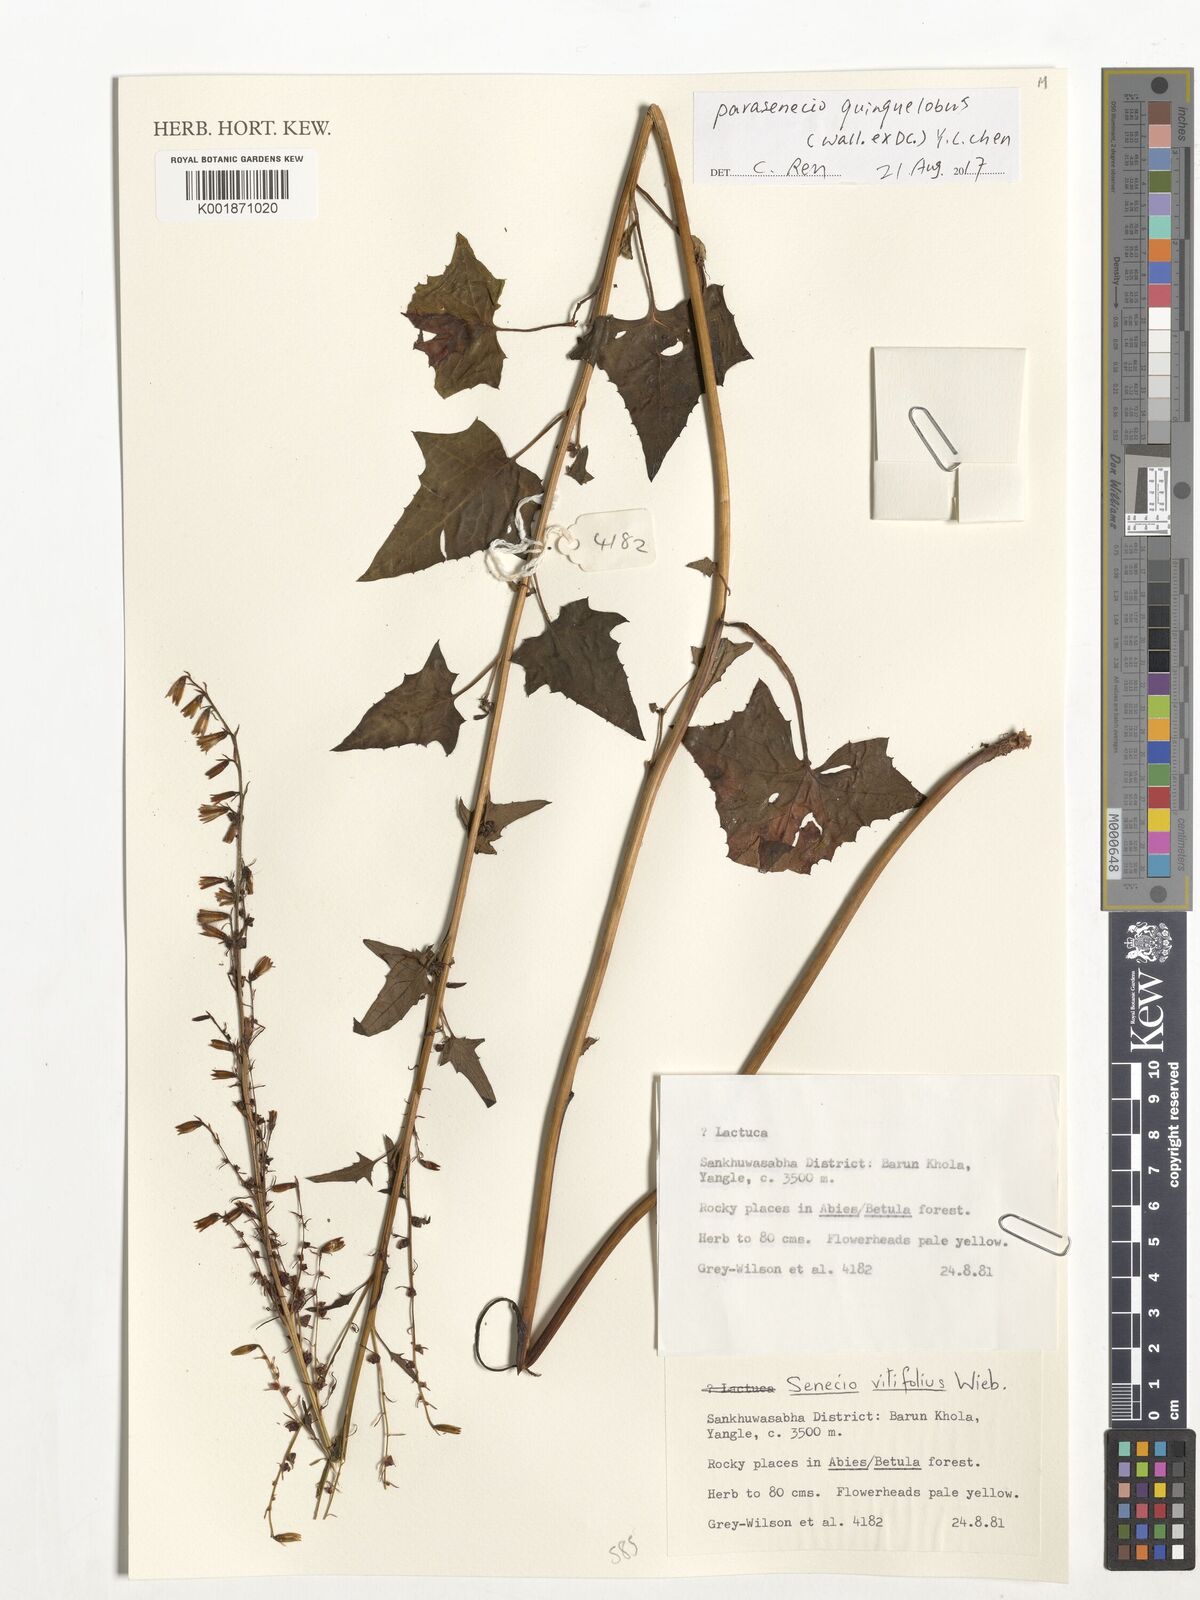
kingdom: Plantae
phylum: Tracheophyta
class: Magnoliopsida
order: Asterales
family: Asteraceae
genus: Parasenecio
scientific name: Parasenecio quinquelobus
